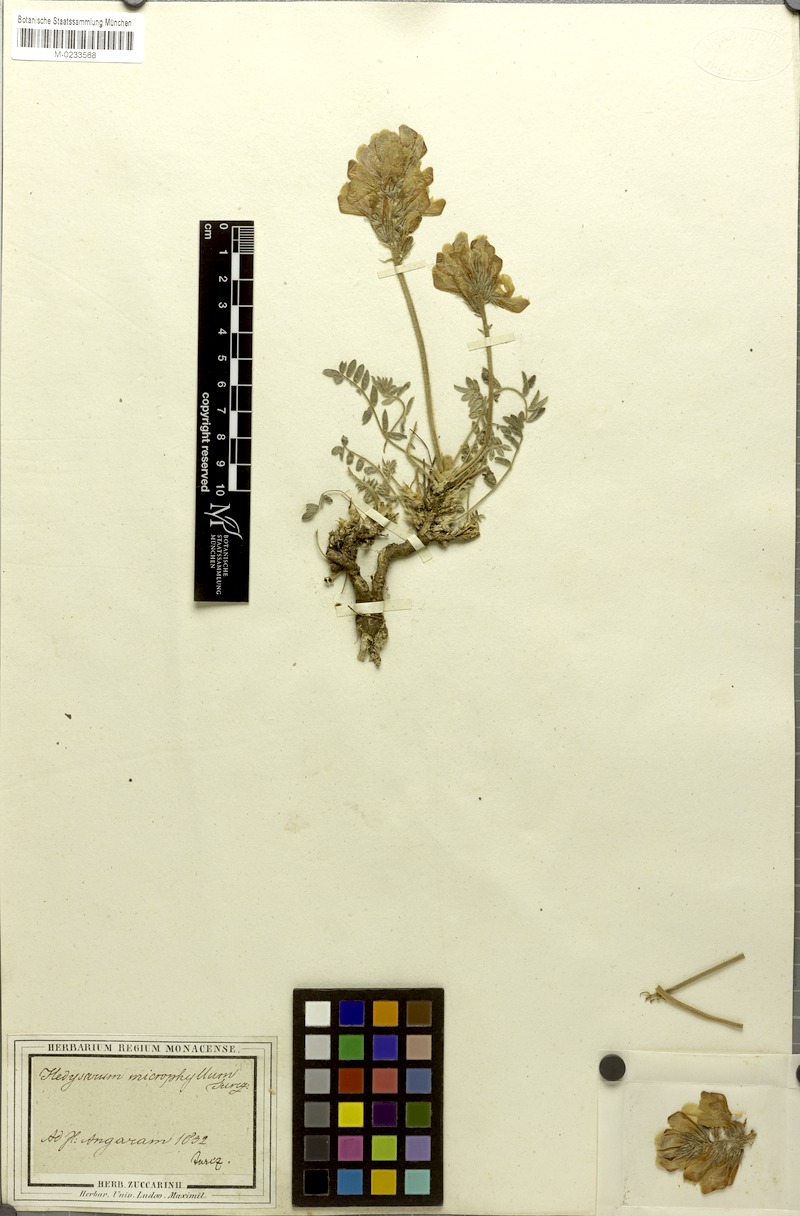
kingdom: Plantae
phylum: Tracheophyta
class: Magnoliopsida
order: Fabales
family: Fabaceae
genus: Hedysarum
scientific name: Hedysarum turczaninovii
